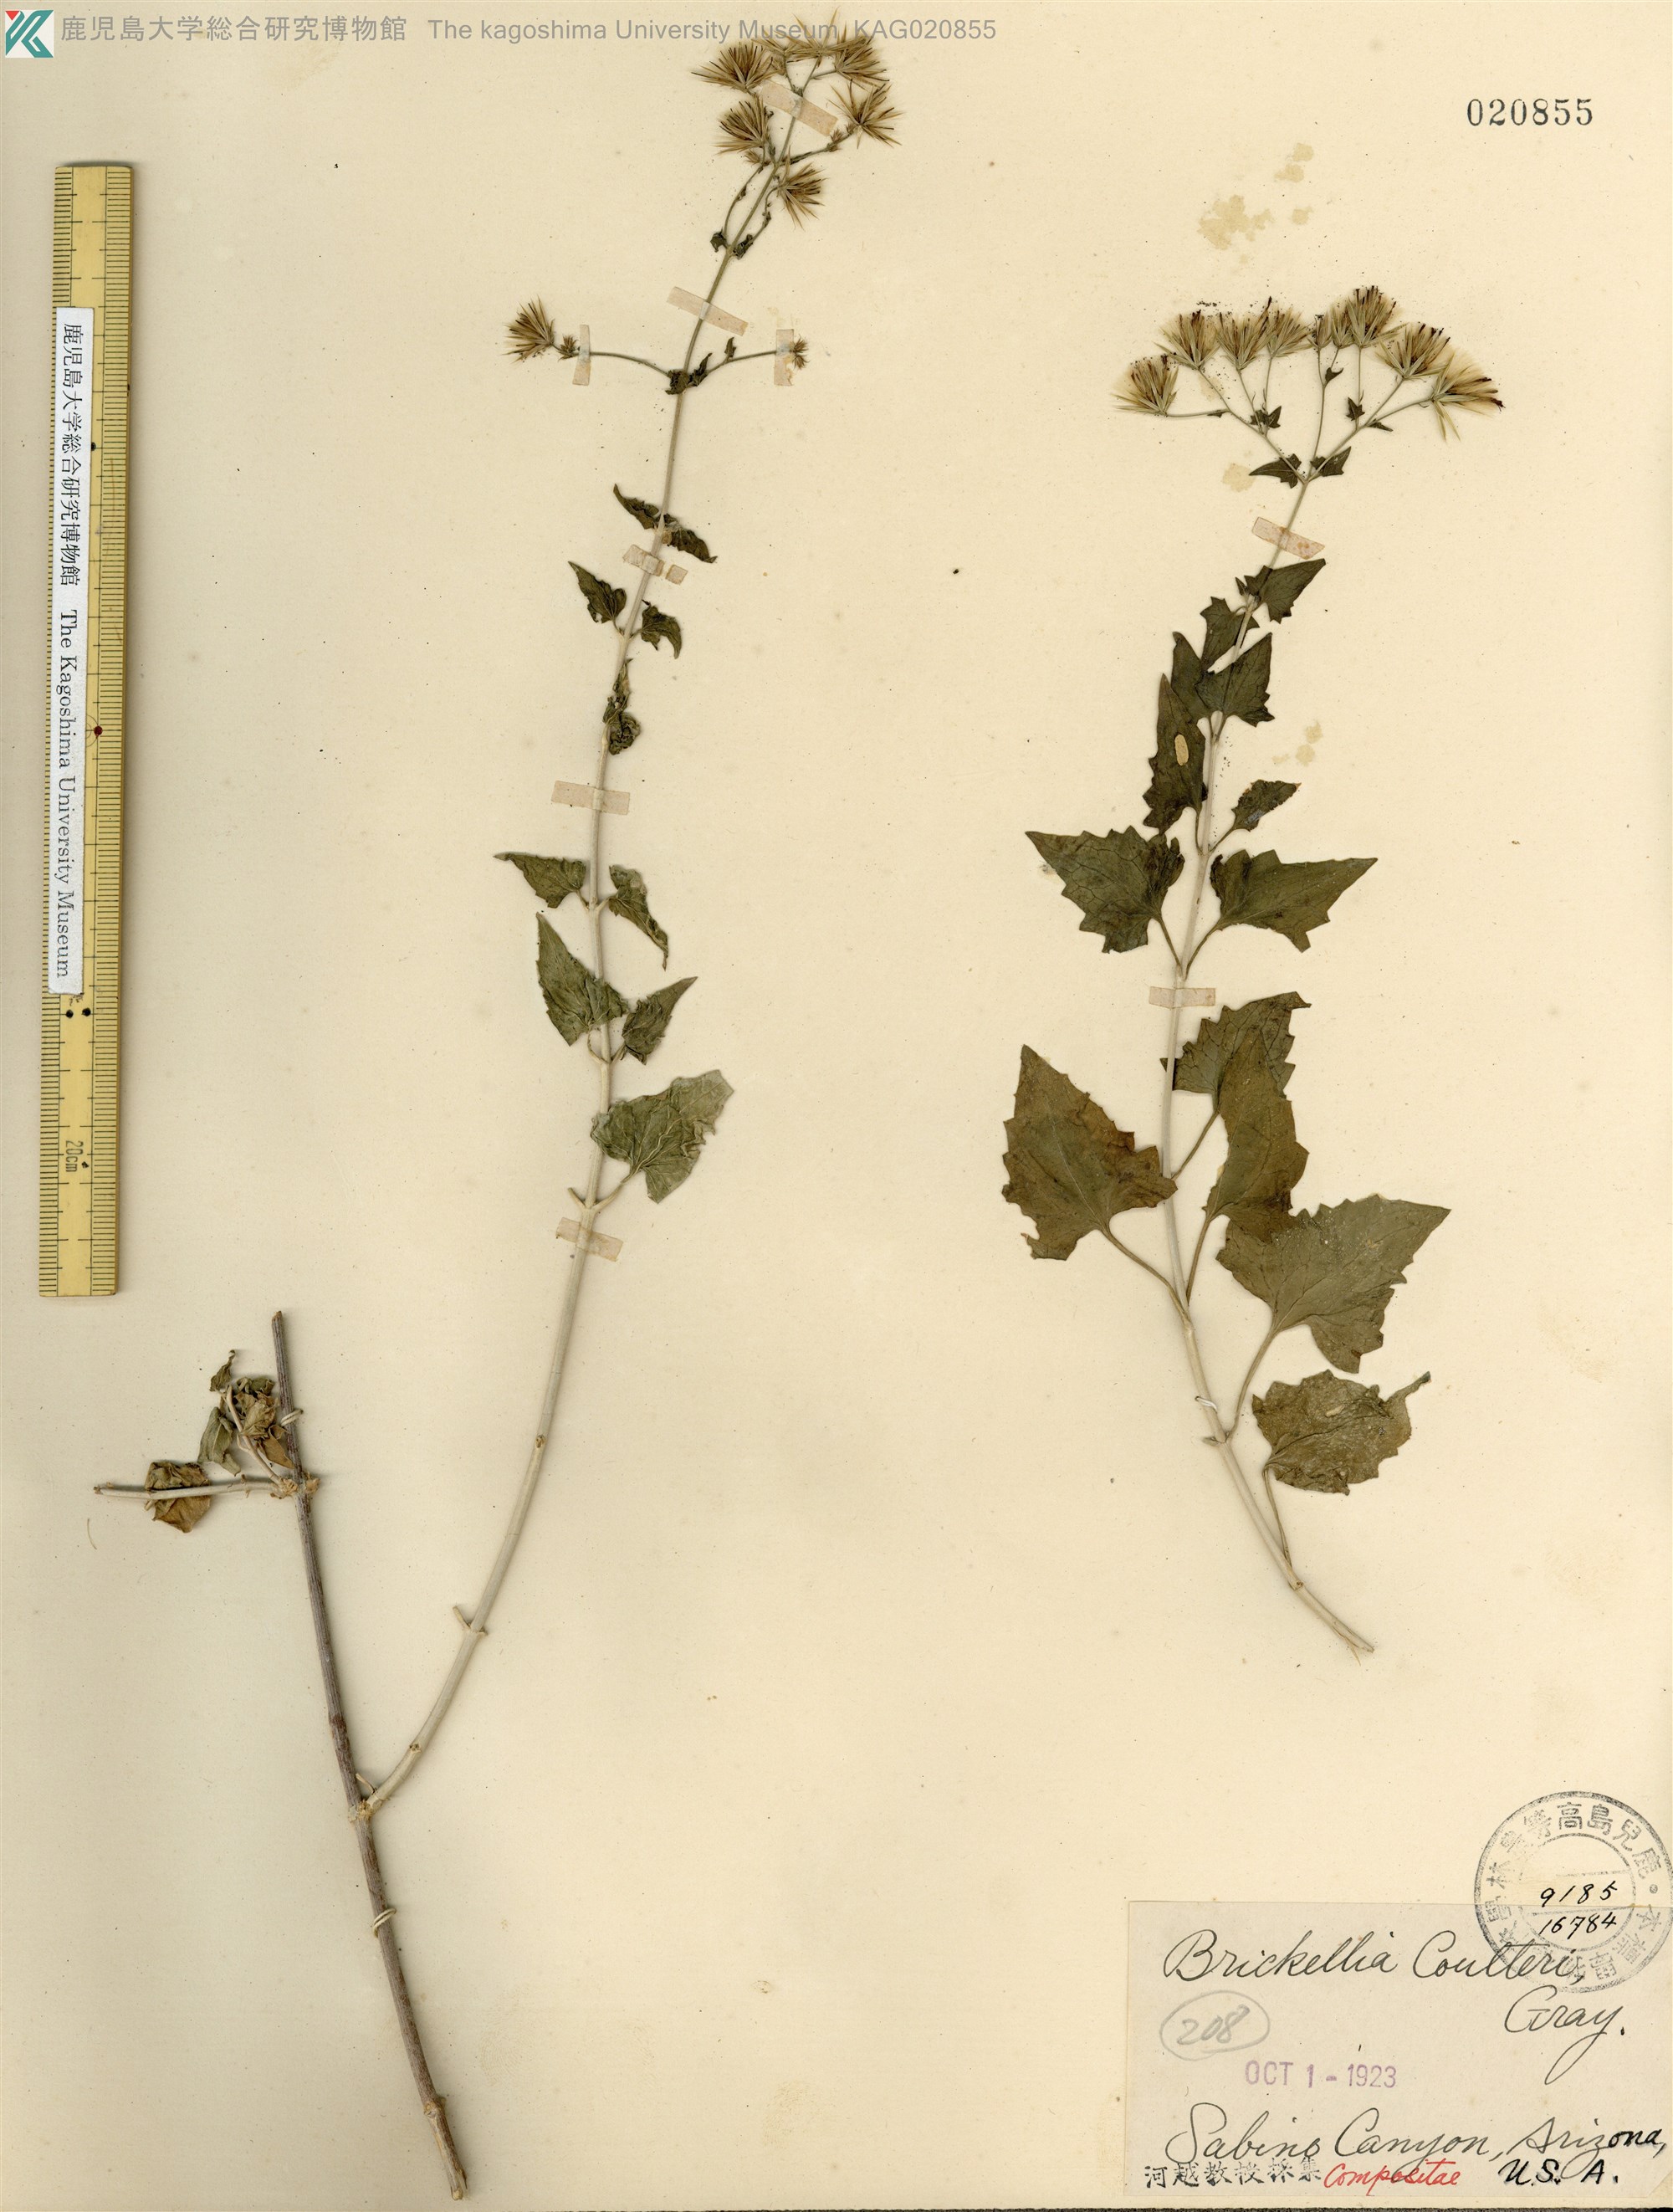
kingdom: Plantae
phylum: Tracheophyta
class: Magnoliopsida
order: Asterales
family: Asteraceae
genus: Brickellia
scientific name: Brickellia californica
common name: California brickellbush
